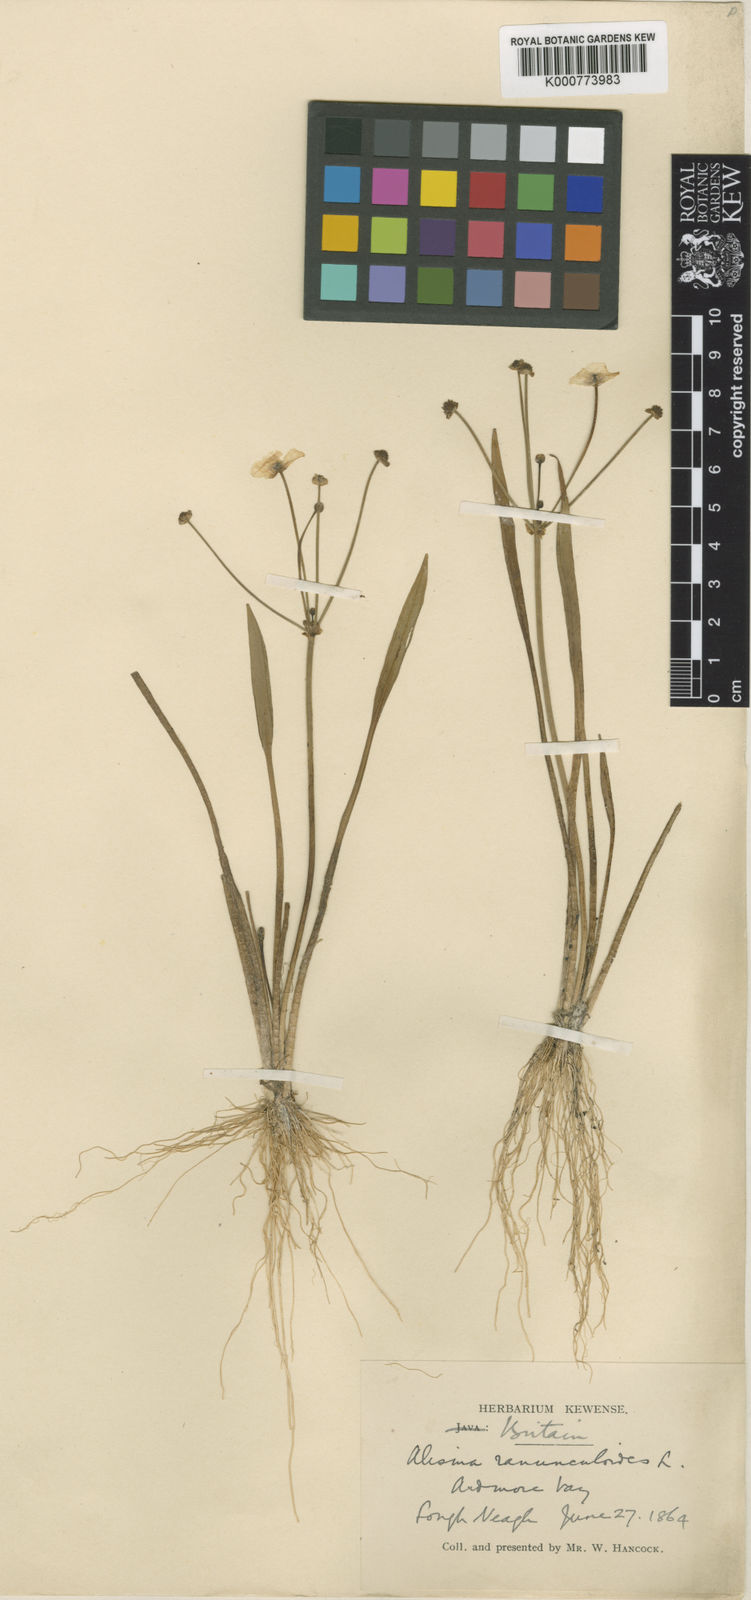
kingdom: Plantae
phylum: Tracheophyta
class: Liliopsida
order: Alismatales
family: Alismataceae
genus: Baldellia
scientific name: Baldellia ranunculoides
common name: Lesser water-plantain
